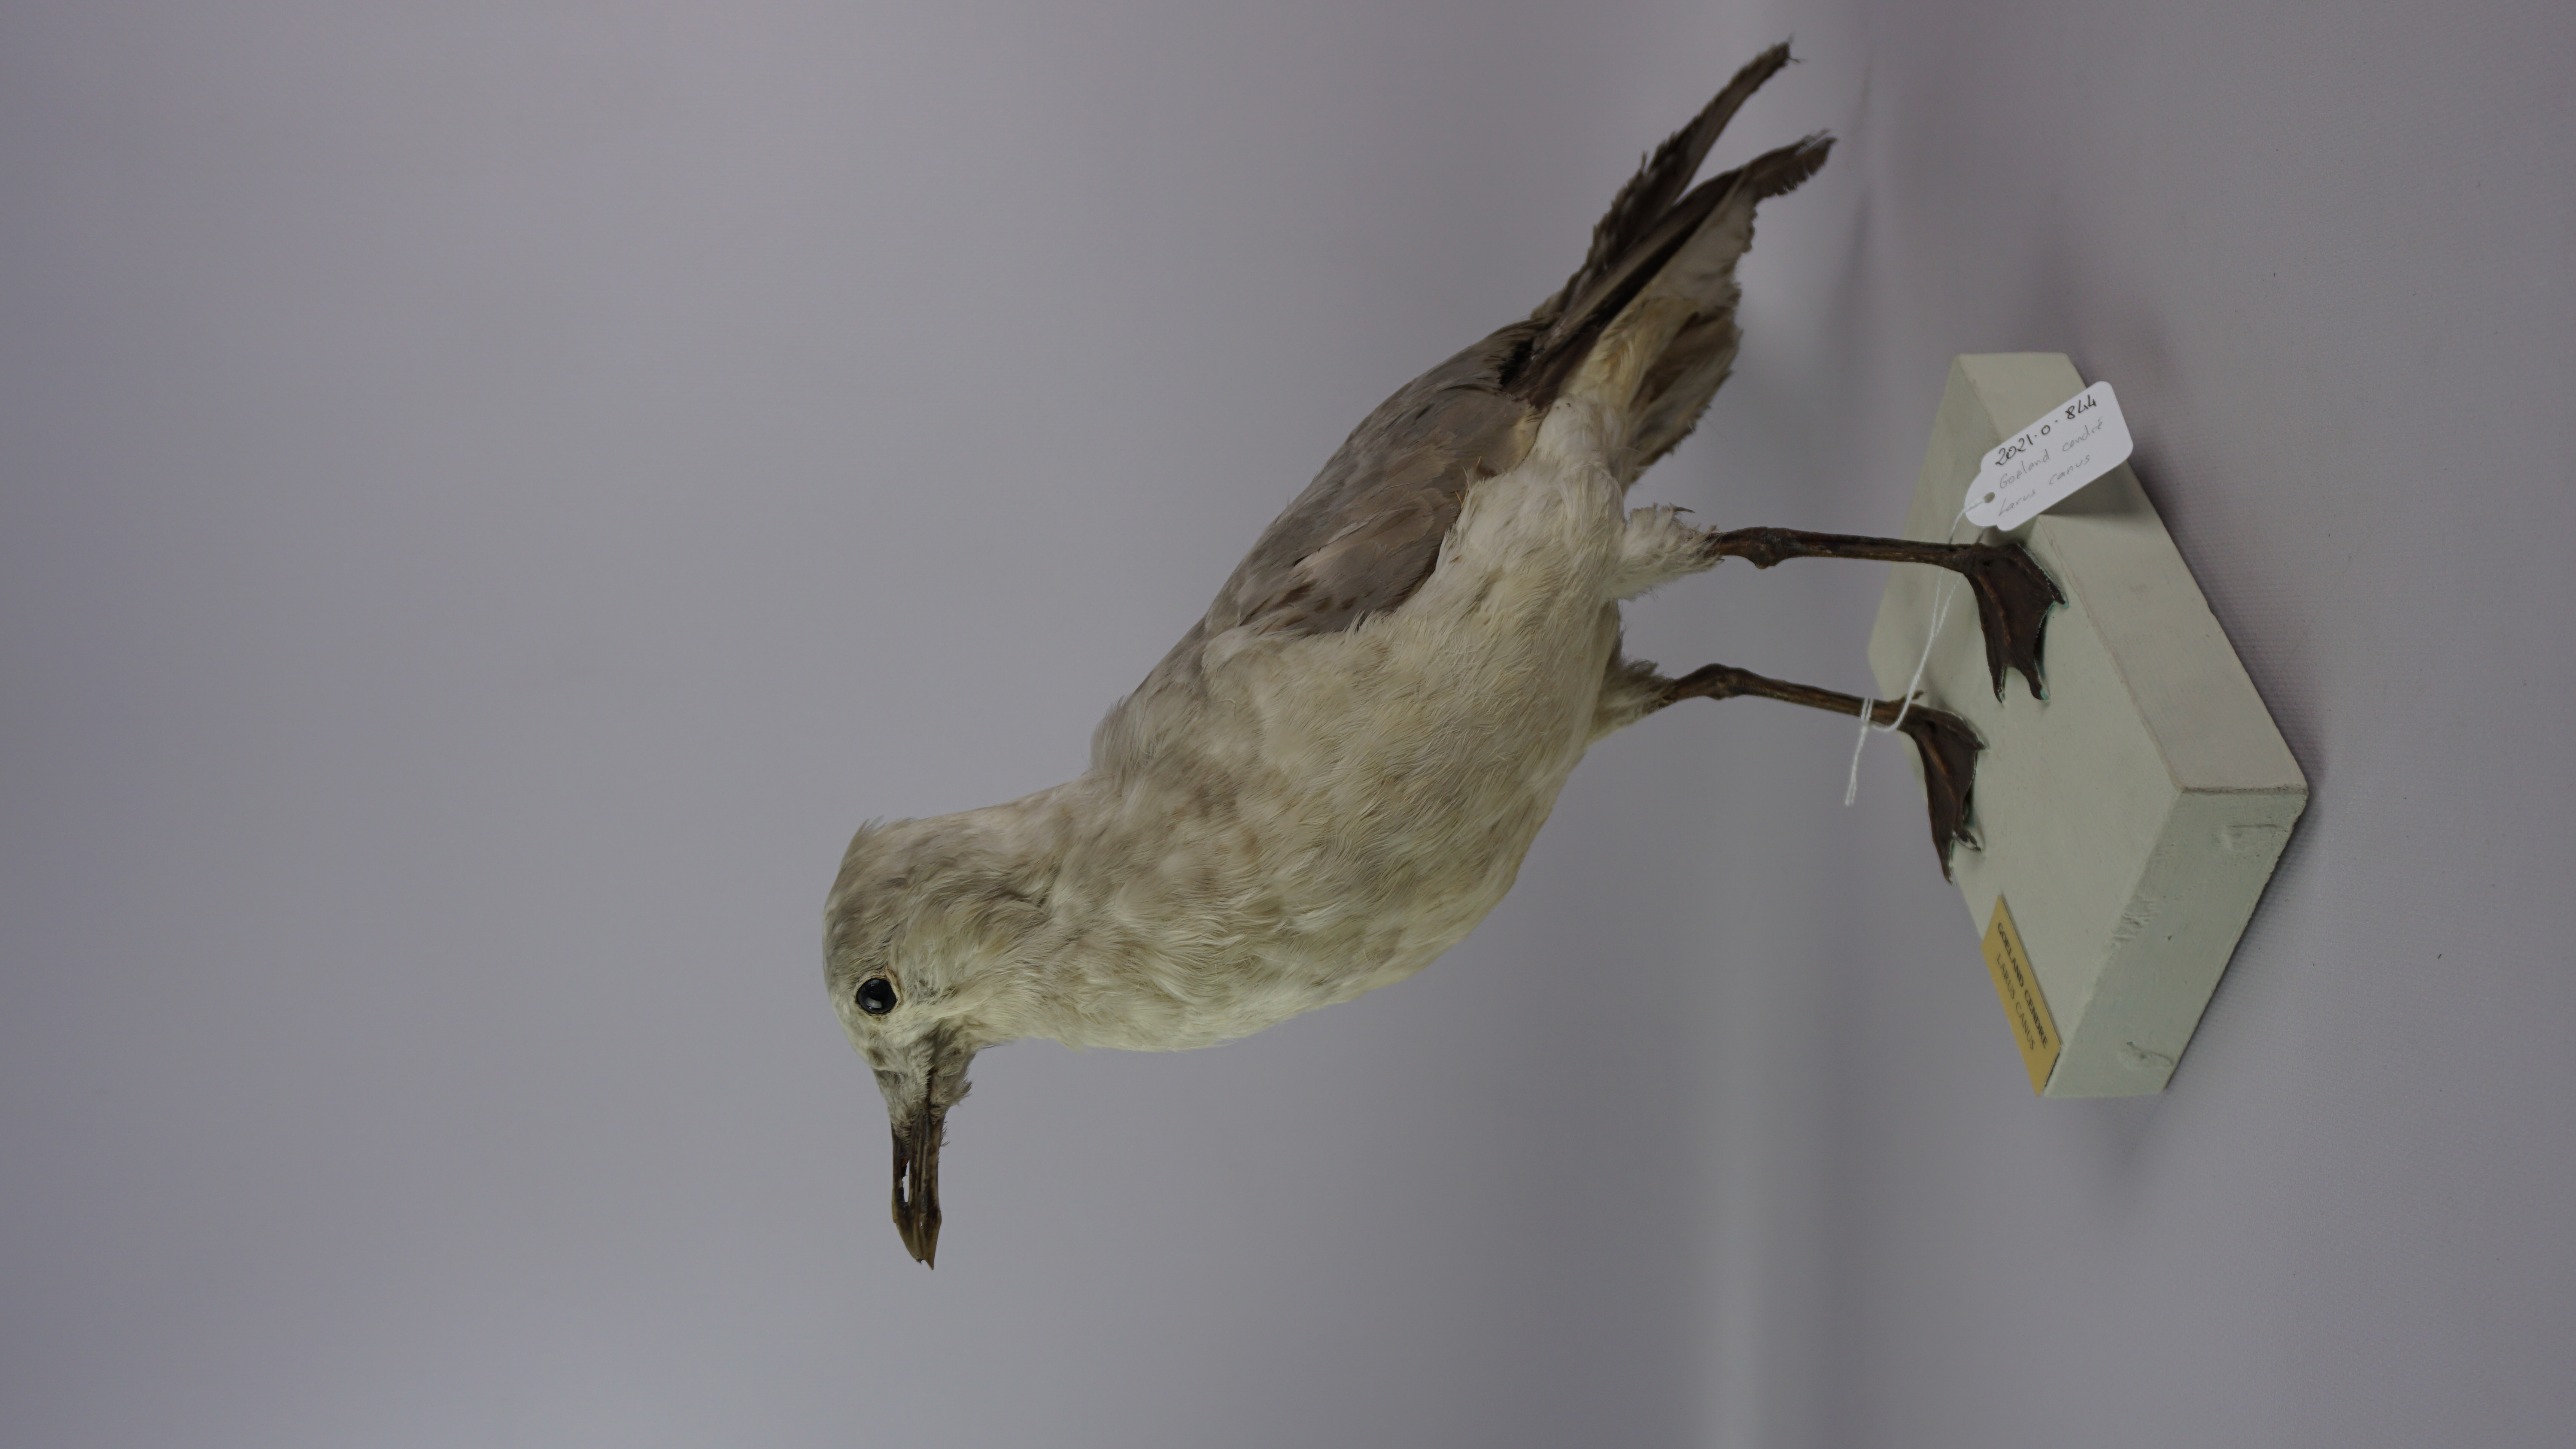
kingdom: Animalia
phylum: Chordata
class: Aves
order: Charadriiformes
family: Laridae
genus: Larus
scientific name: Larus canus
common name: Mew gull
